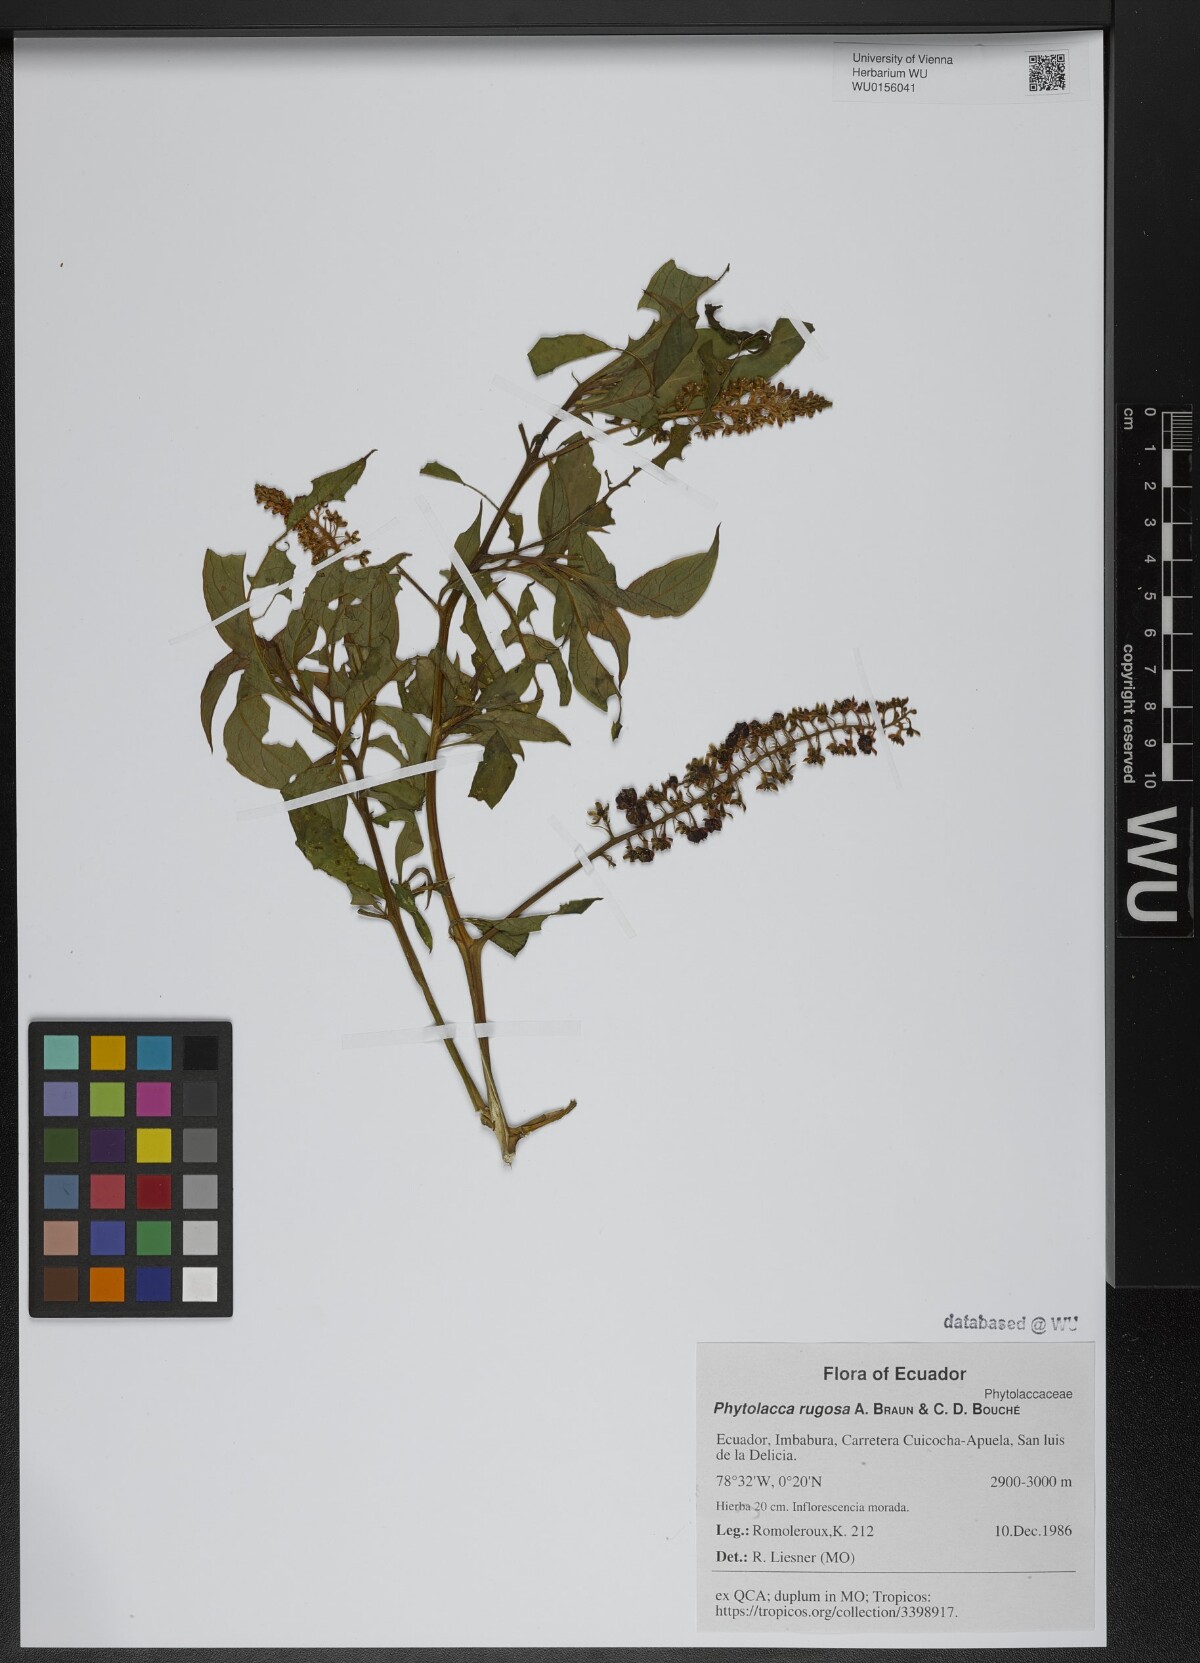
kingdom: Plantae
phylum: Tracheophyta
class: Magnoliopsida
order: Caryophyllales
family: Phytolaccaceae
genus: Phytolacca
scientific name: Phytolacca rugosa
